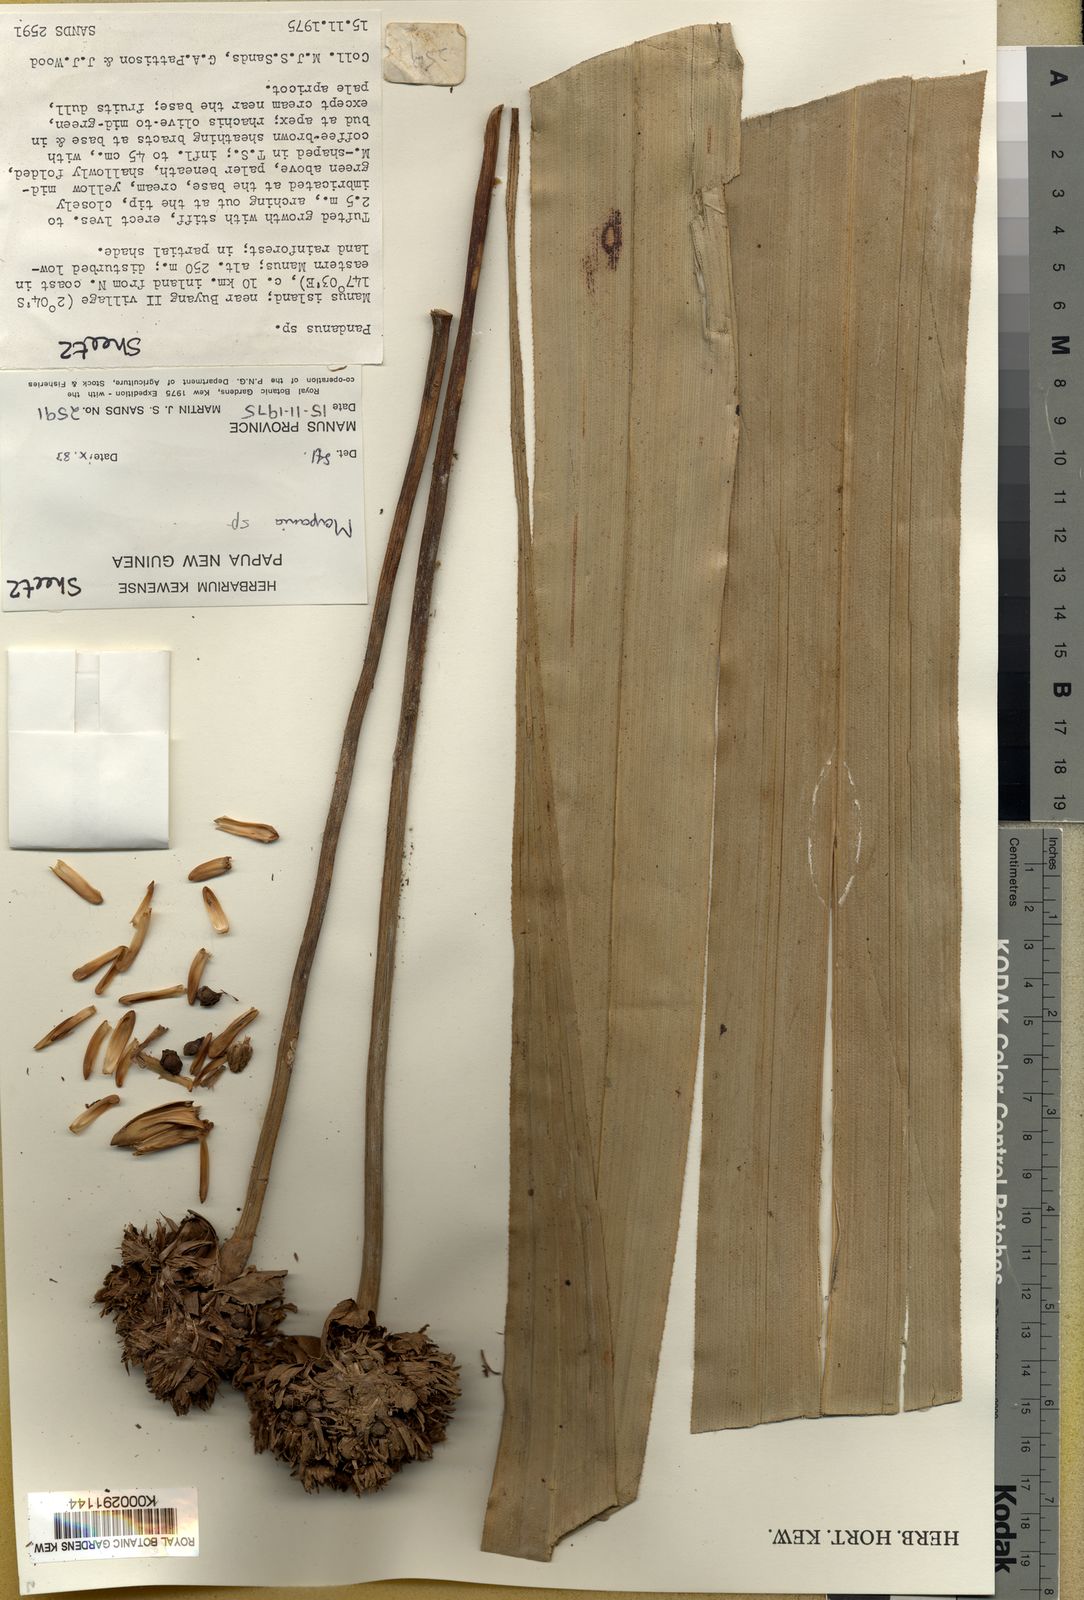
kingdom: Plantae
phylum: Tracheophyta
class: Liliopsida
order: Poales
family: Cyperaceae
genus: Mapania
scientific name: Mapania baccifera
